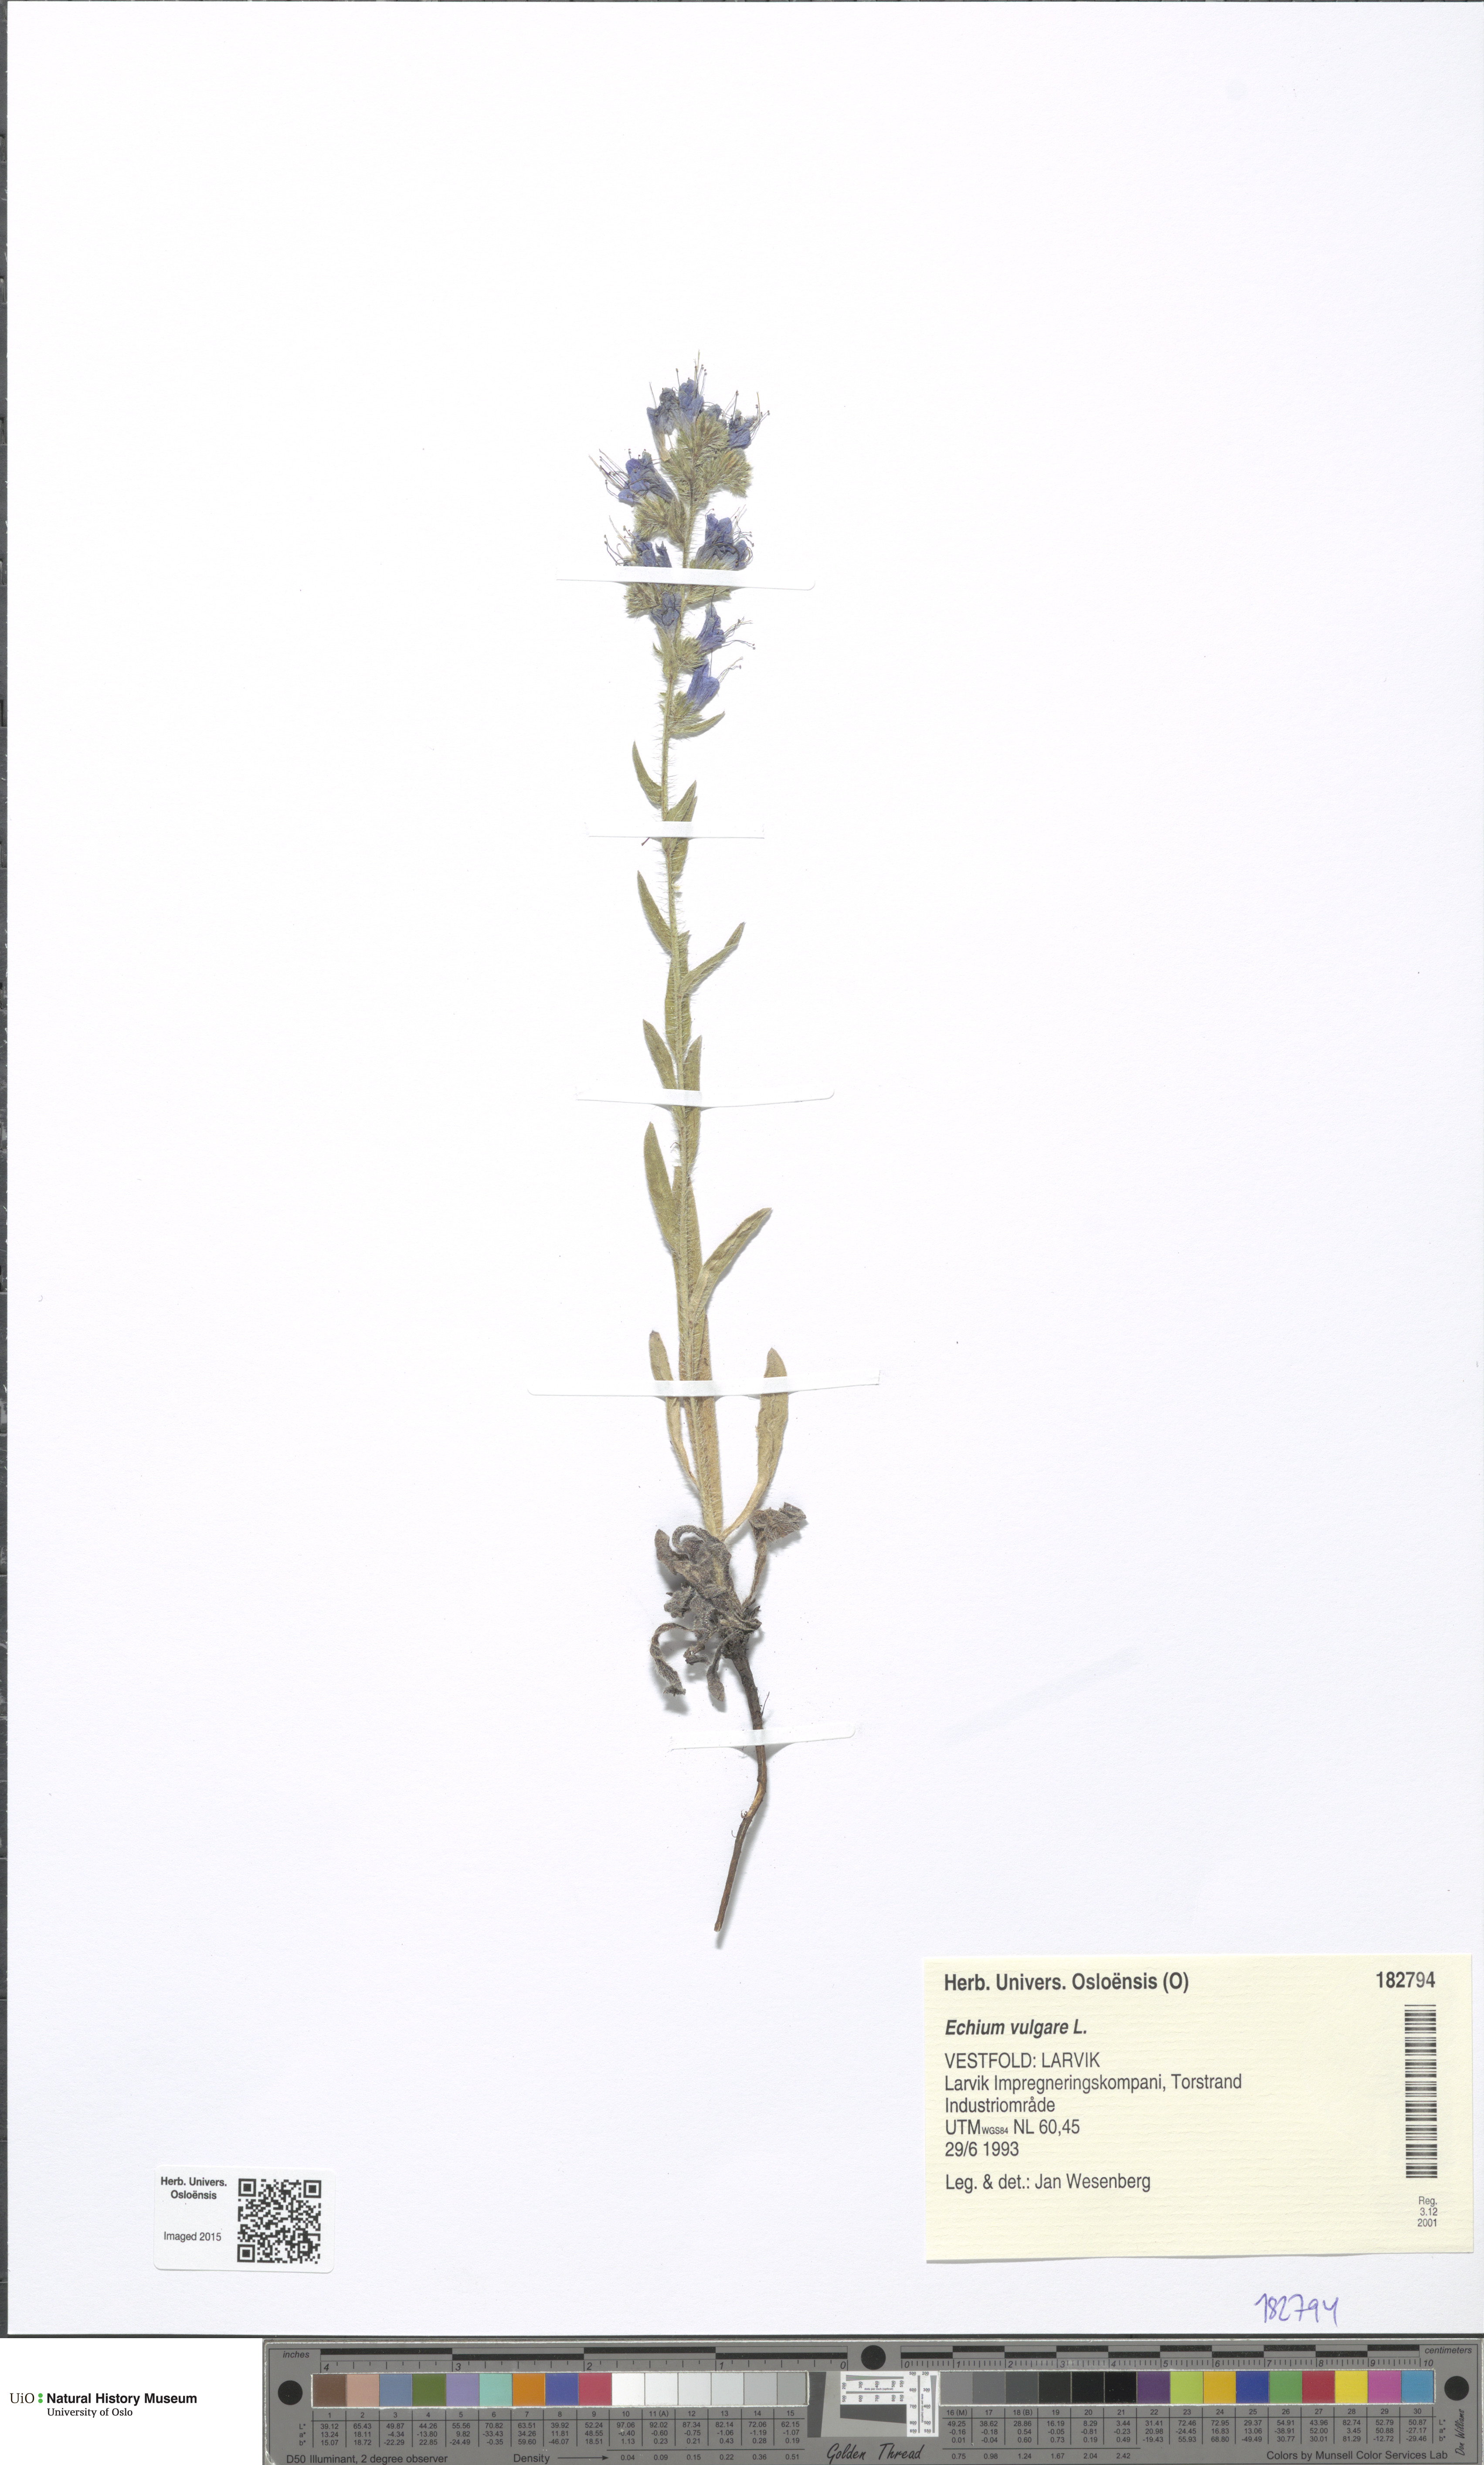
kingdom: Plantae
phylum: Tracheophyta
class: Magnoliopsida
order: Boraginales
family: Boraginaceae
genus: Echium
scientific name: Echium vulgare
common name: Common viper's bugloss
